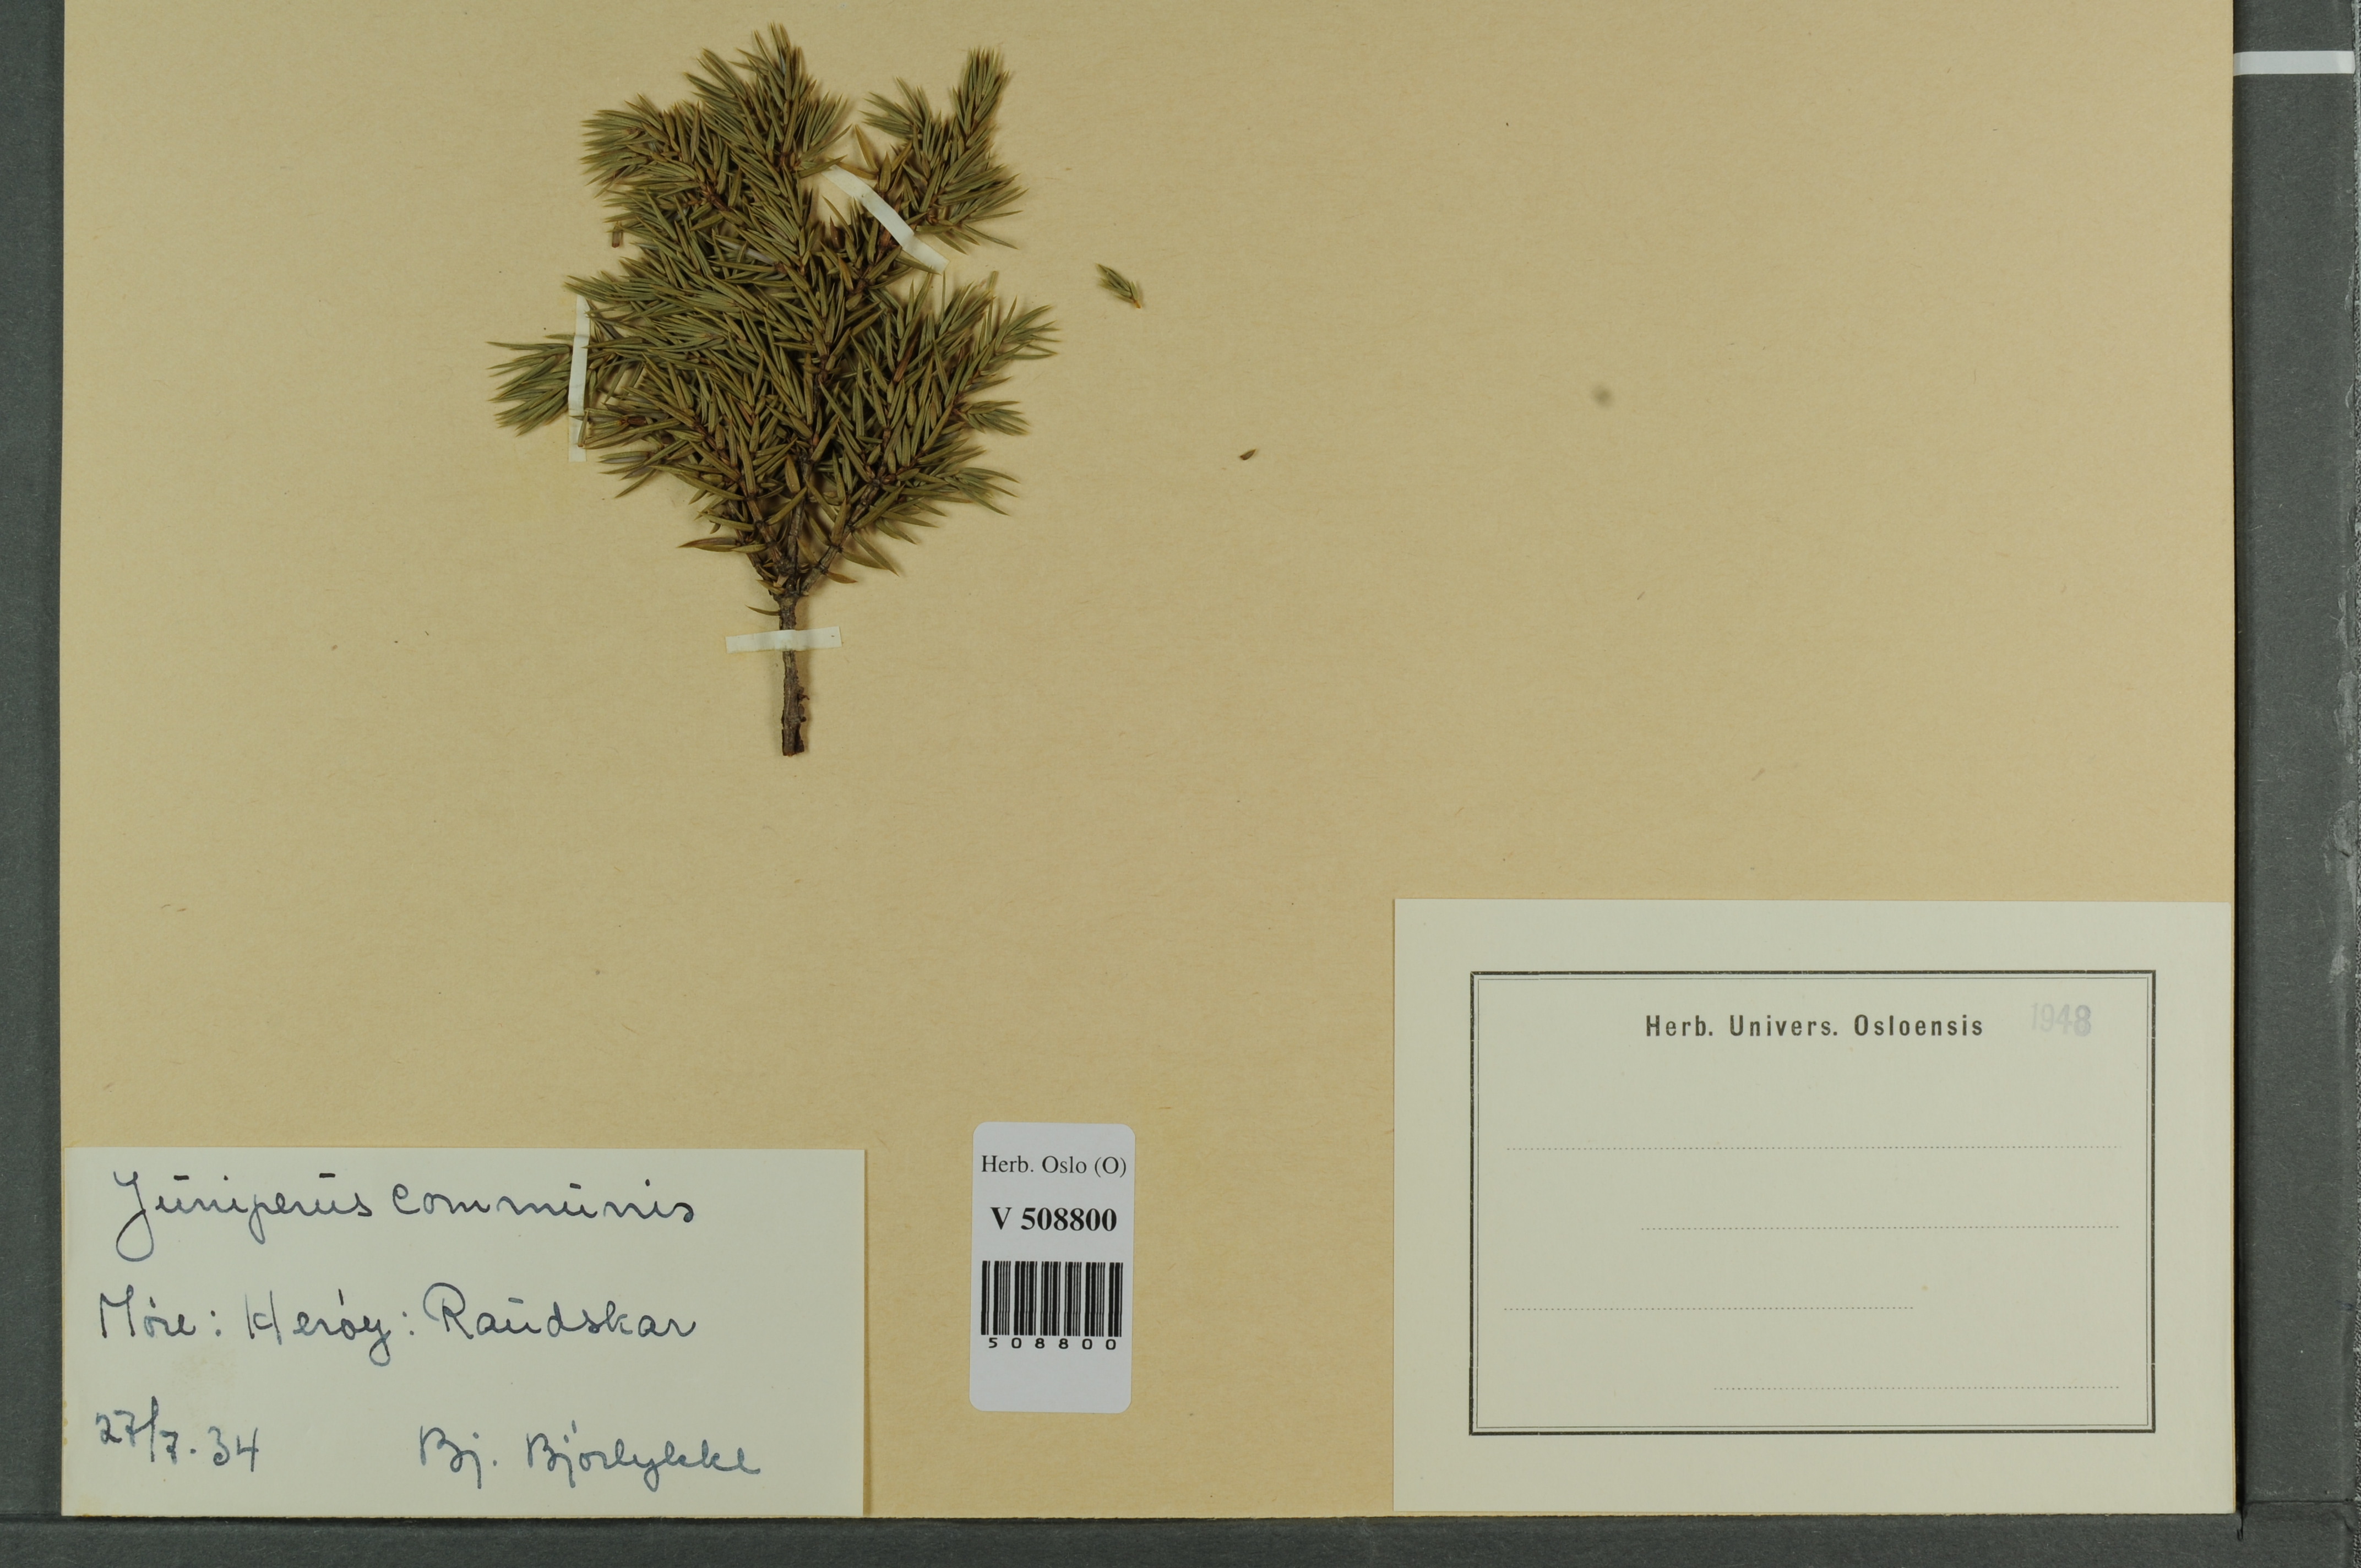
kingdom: Plantae
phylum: Tracheophyta
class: Pinopsida
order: Pinales
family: Cupressaceae
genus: Juniperus
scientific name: Juniperus communis
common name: Common juniper
